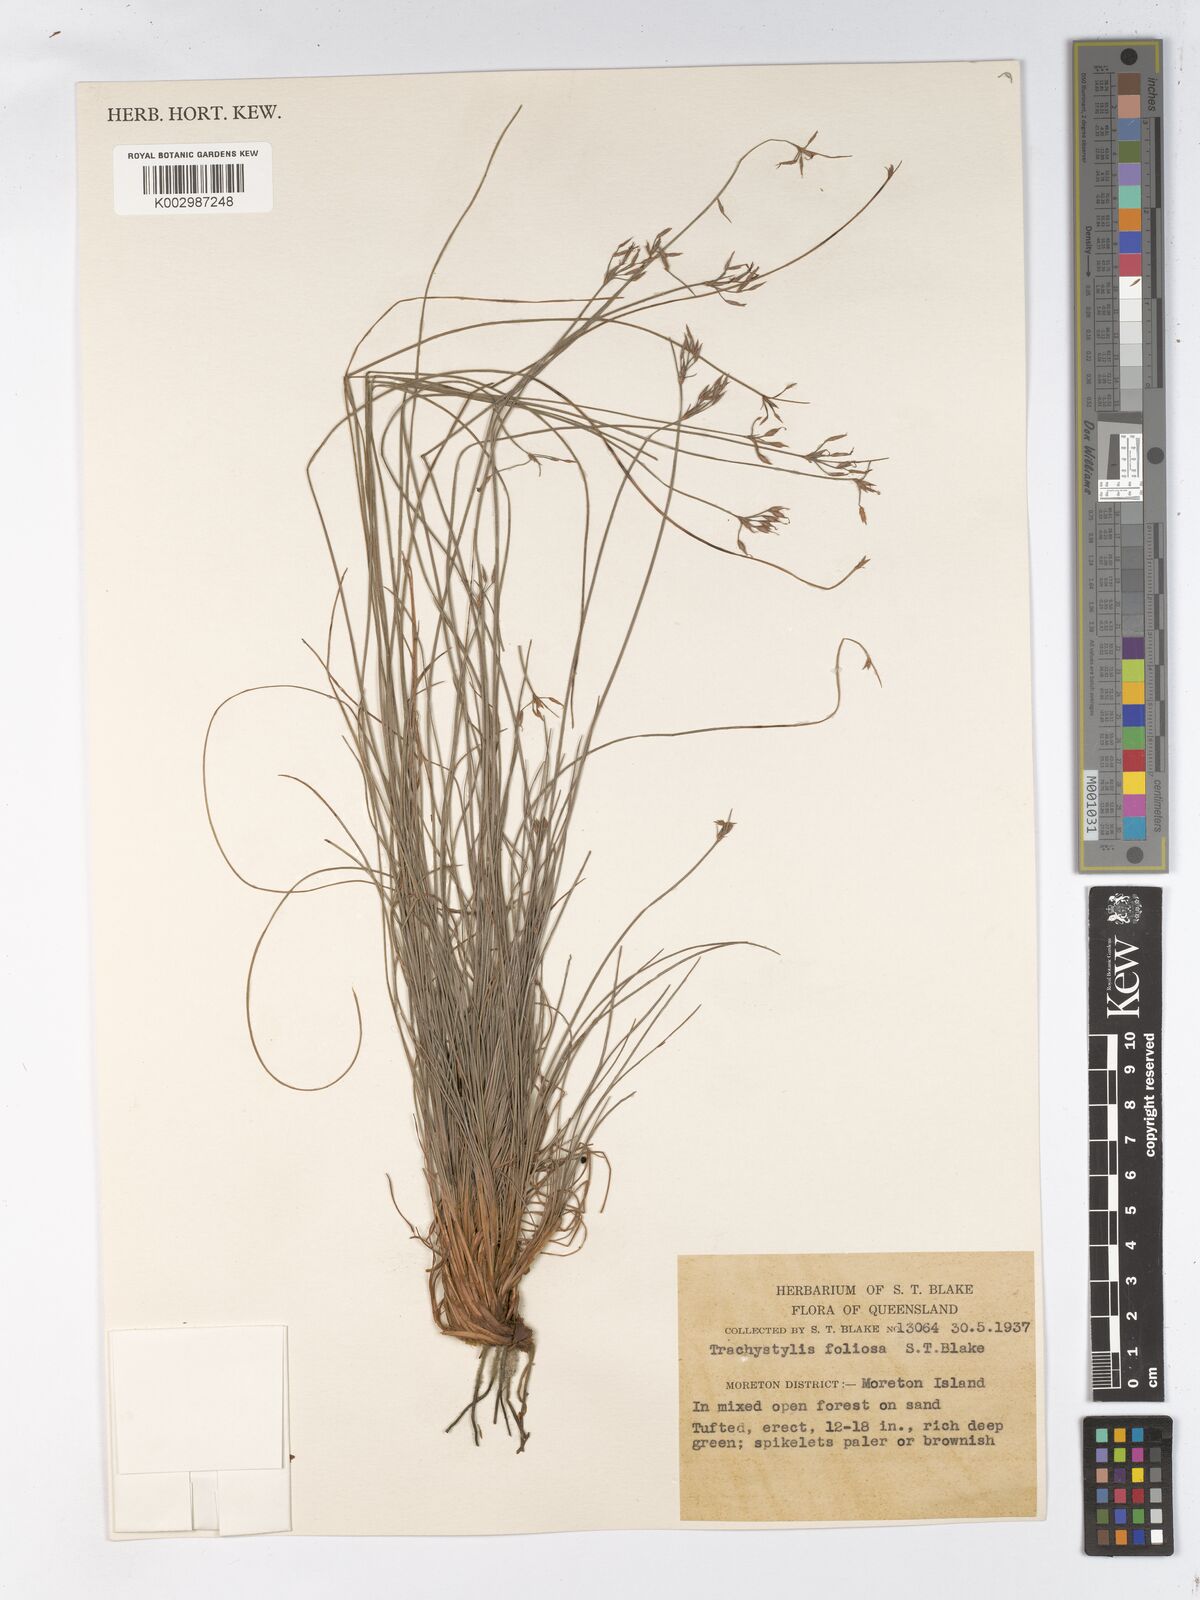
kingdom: Plantae
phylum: Tracheophyta
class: Liliopsida
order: Poales
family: Cyperaceae
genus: Trachystylis
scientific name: Trachystylis stradbrokensis
